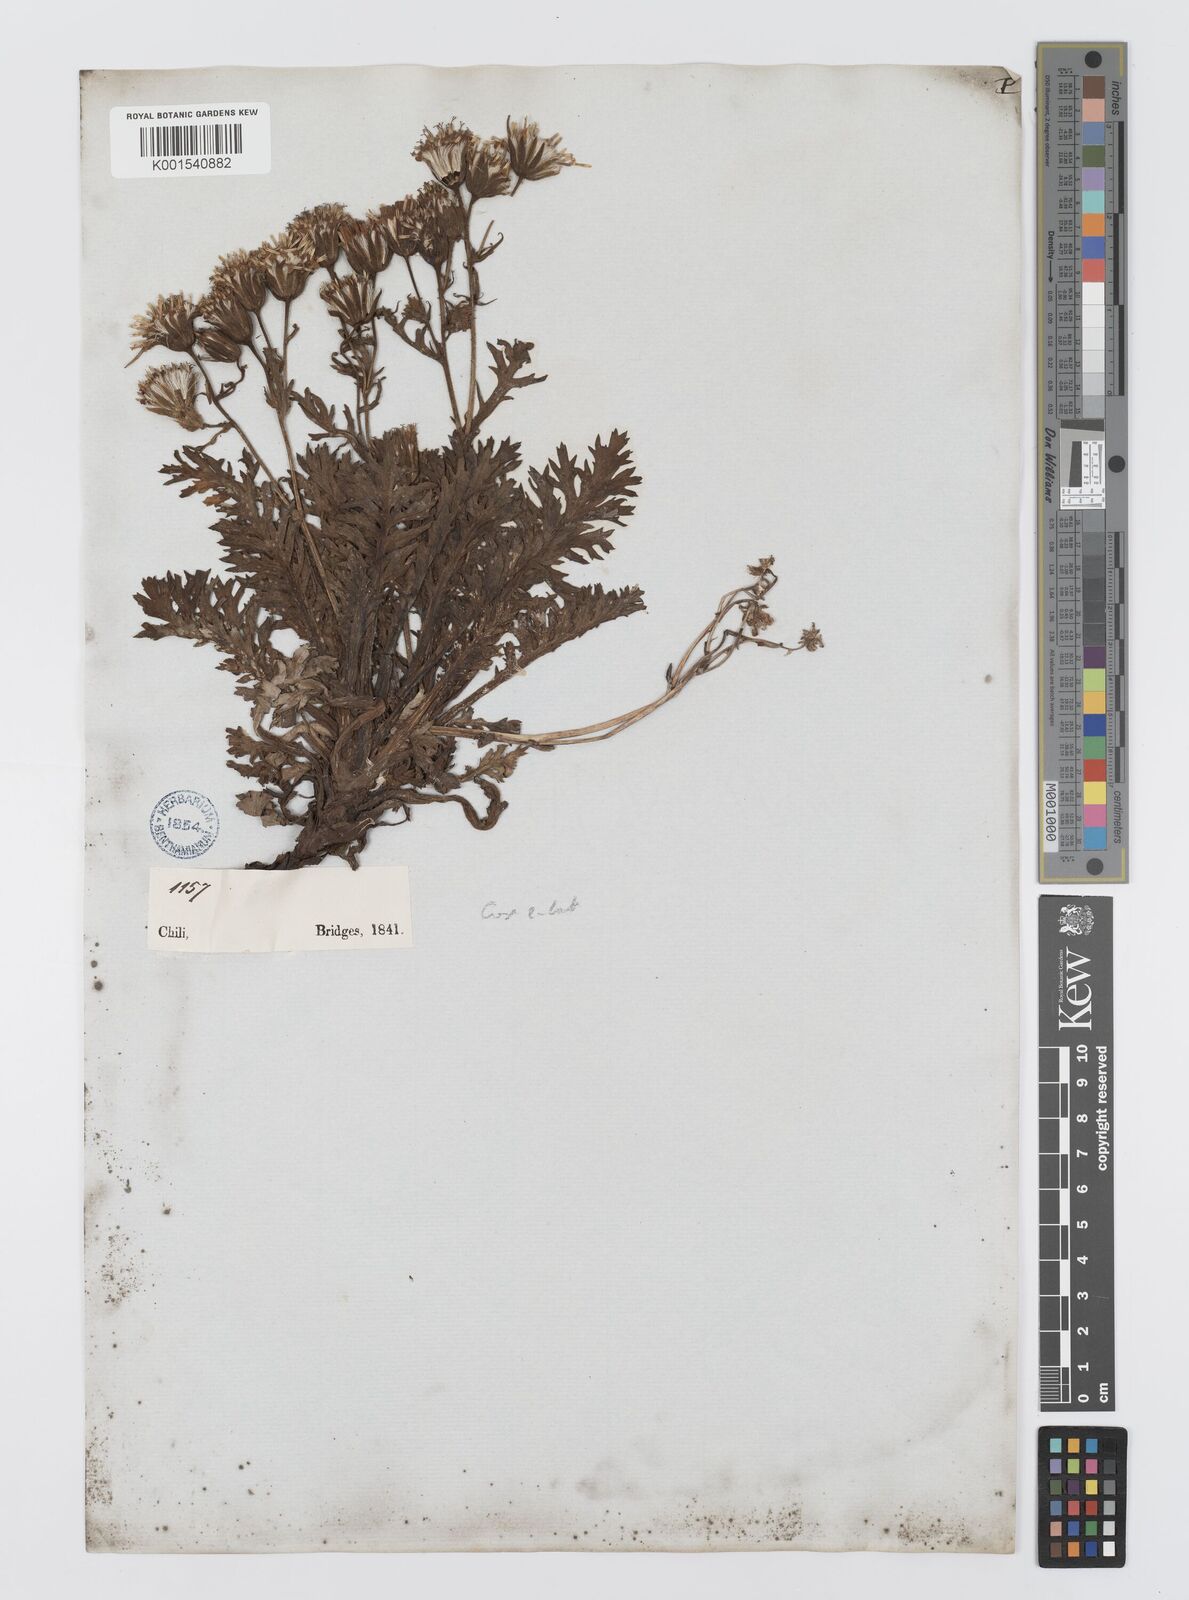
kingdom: Plantae
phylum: Tracheophyta
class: Magnoliopsida
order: Asterales
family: Asteraceae
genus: Leucheria
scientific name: Leucheria salina
